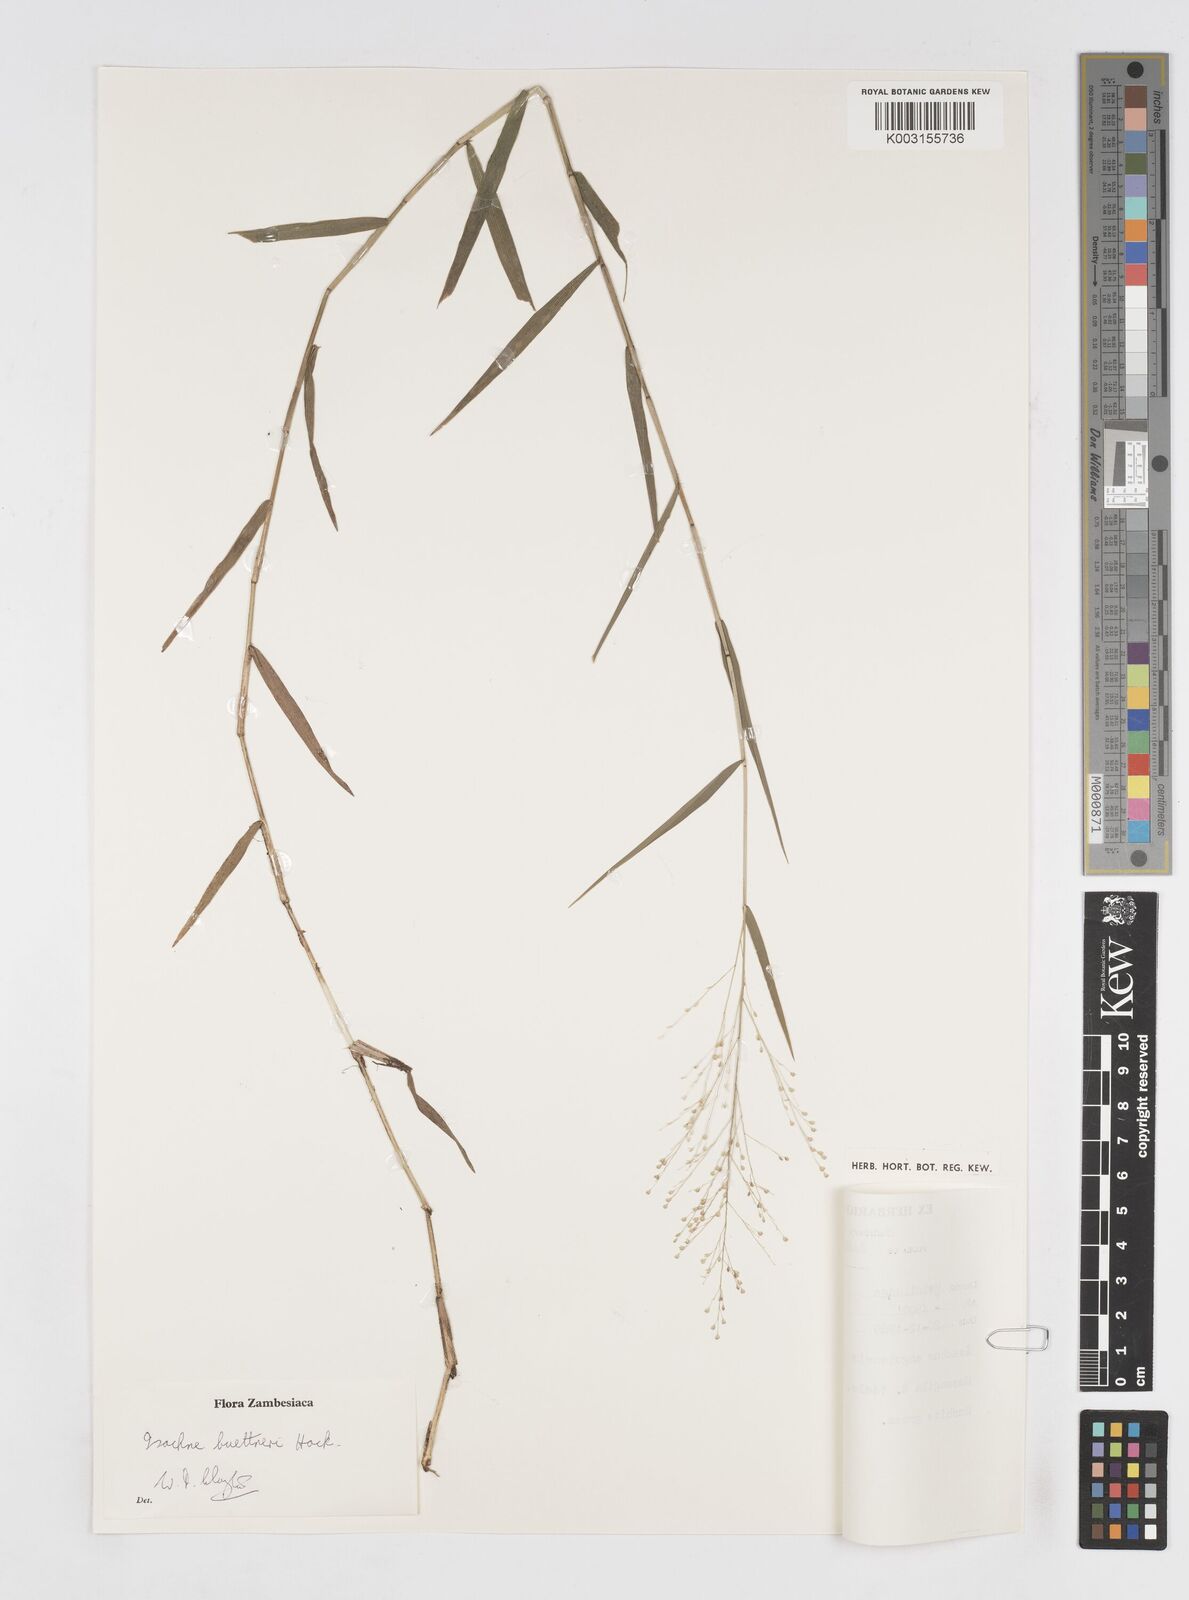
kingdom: Plantae
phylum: Tracheophyta
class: Liliopsida
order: Poales
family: Poaceae
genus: Isachne
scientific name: Isachne albens
